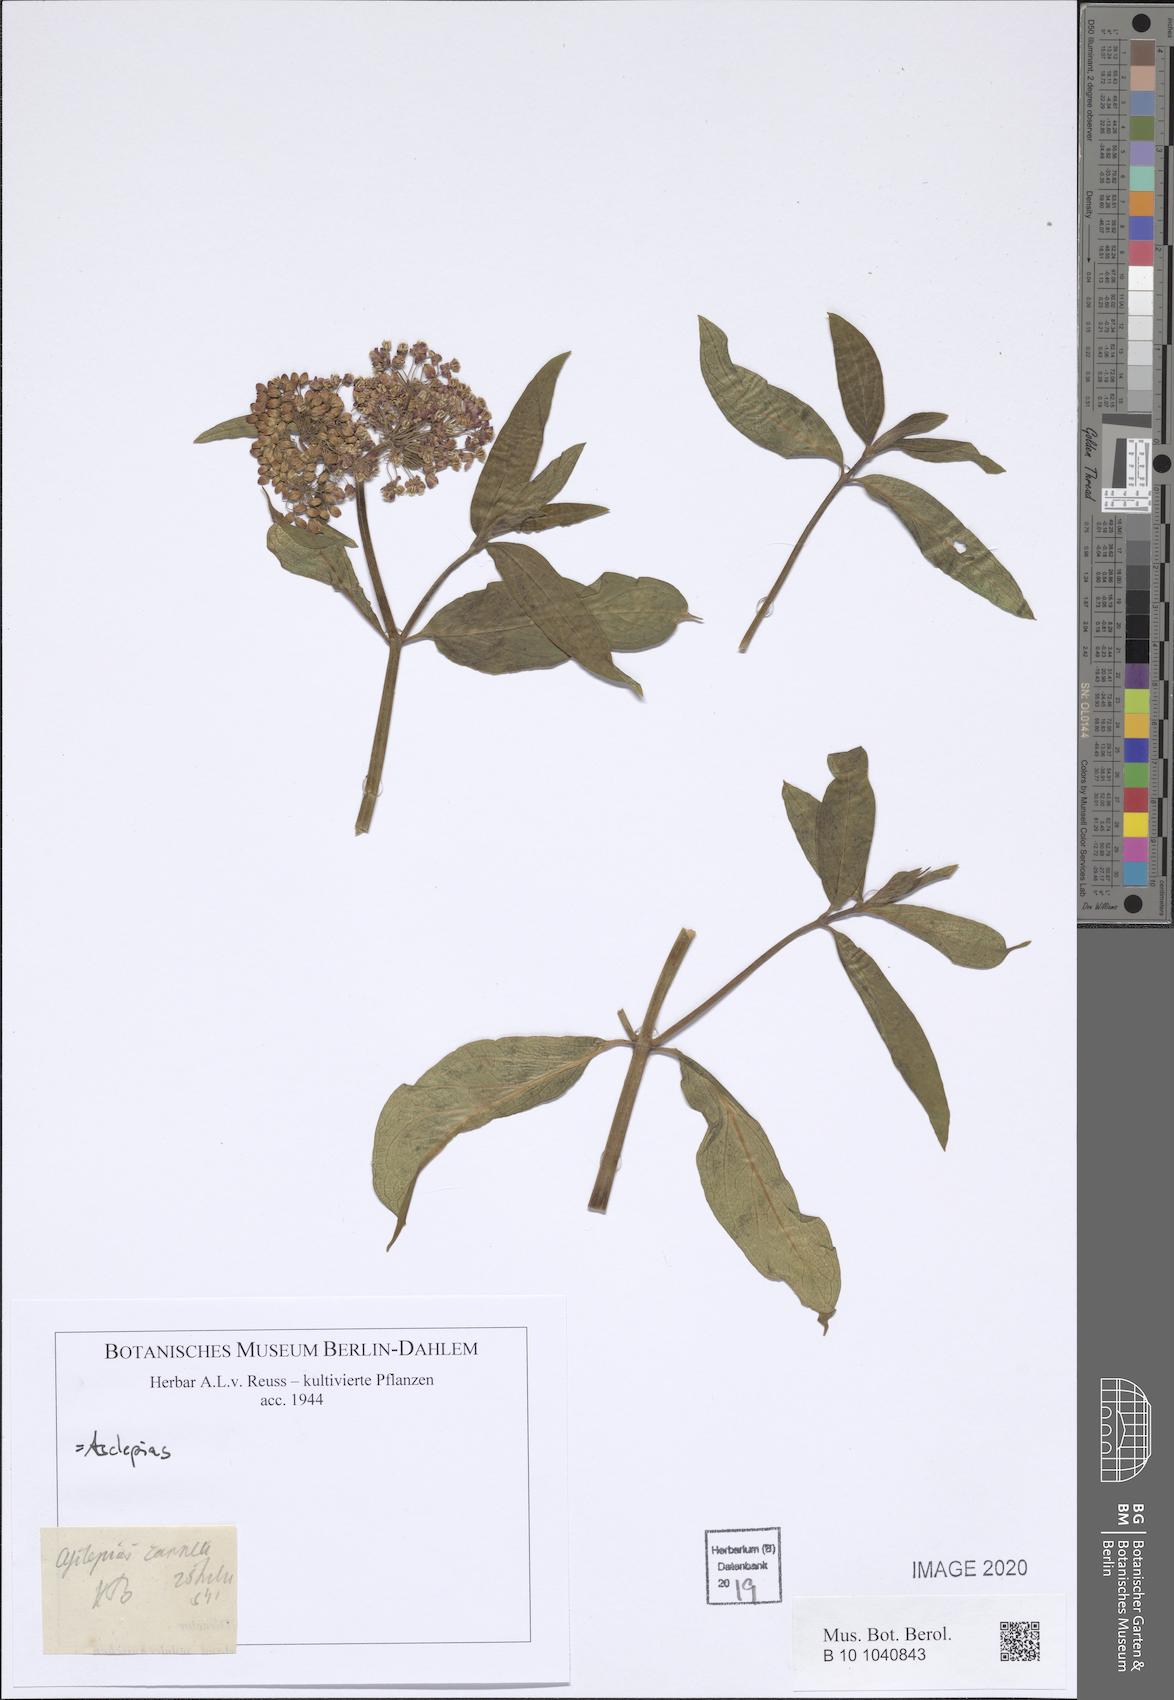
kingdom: Plantae
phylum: Tracheophyta
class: Magnoliopsida
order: Gentianales
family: Apocynaceae
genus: Asclepias
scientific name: Asclepias
